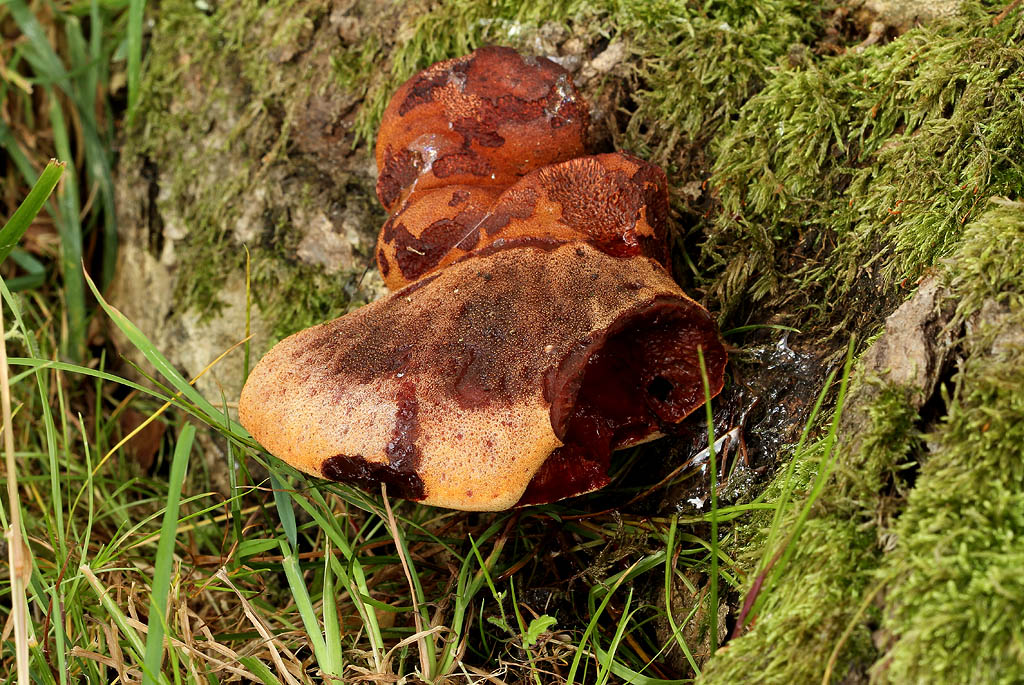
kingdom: Fungi
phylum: Basidiomycota
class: Agaricomycetes
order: Agaricales
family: Fistulinaceae
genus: Fistulina
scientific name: Fistulina hepatica
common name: oksetunge
